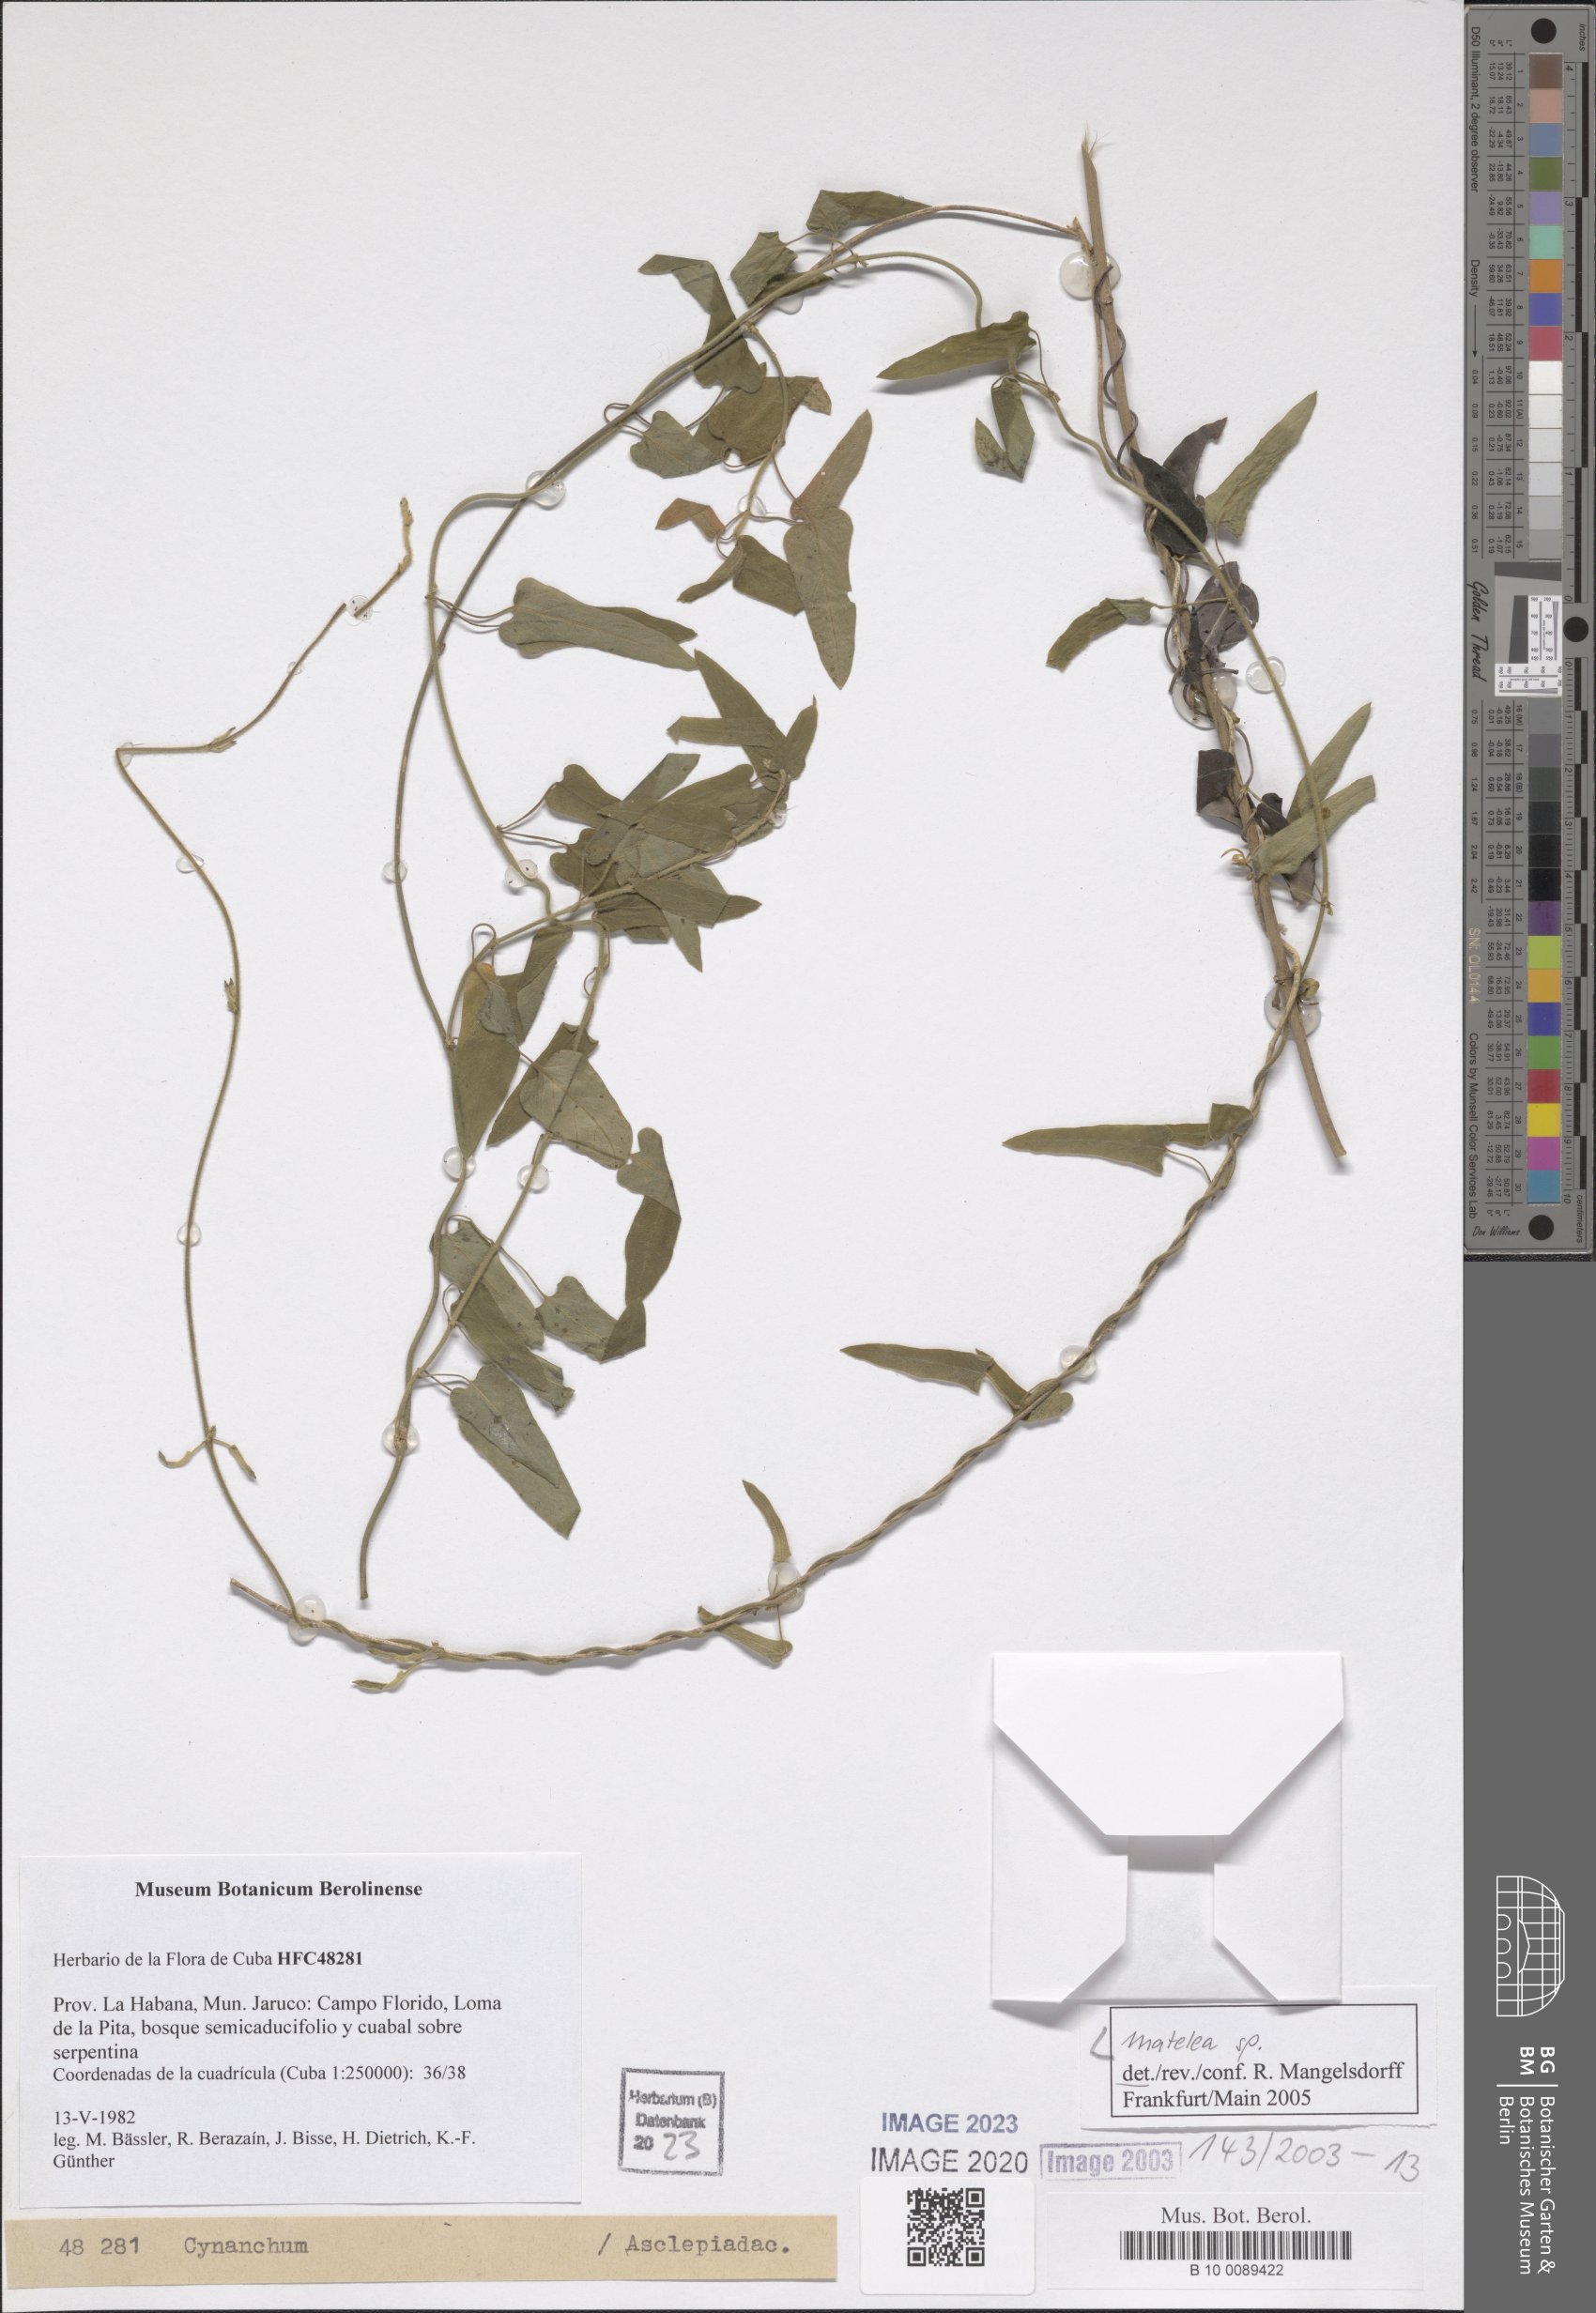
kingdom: Plantae
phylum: Tracheophyta
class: Magnoliopsida
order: Gentianales
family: Apocynaceae
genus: Matelea
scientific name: Matelea
